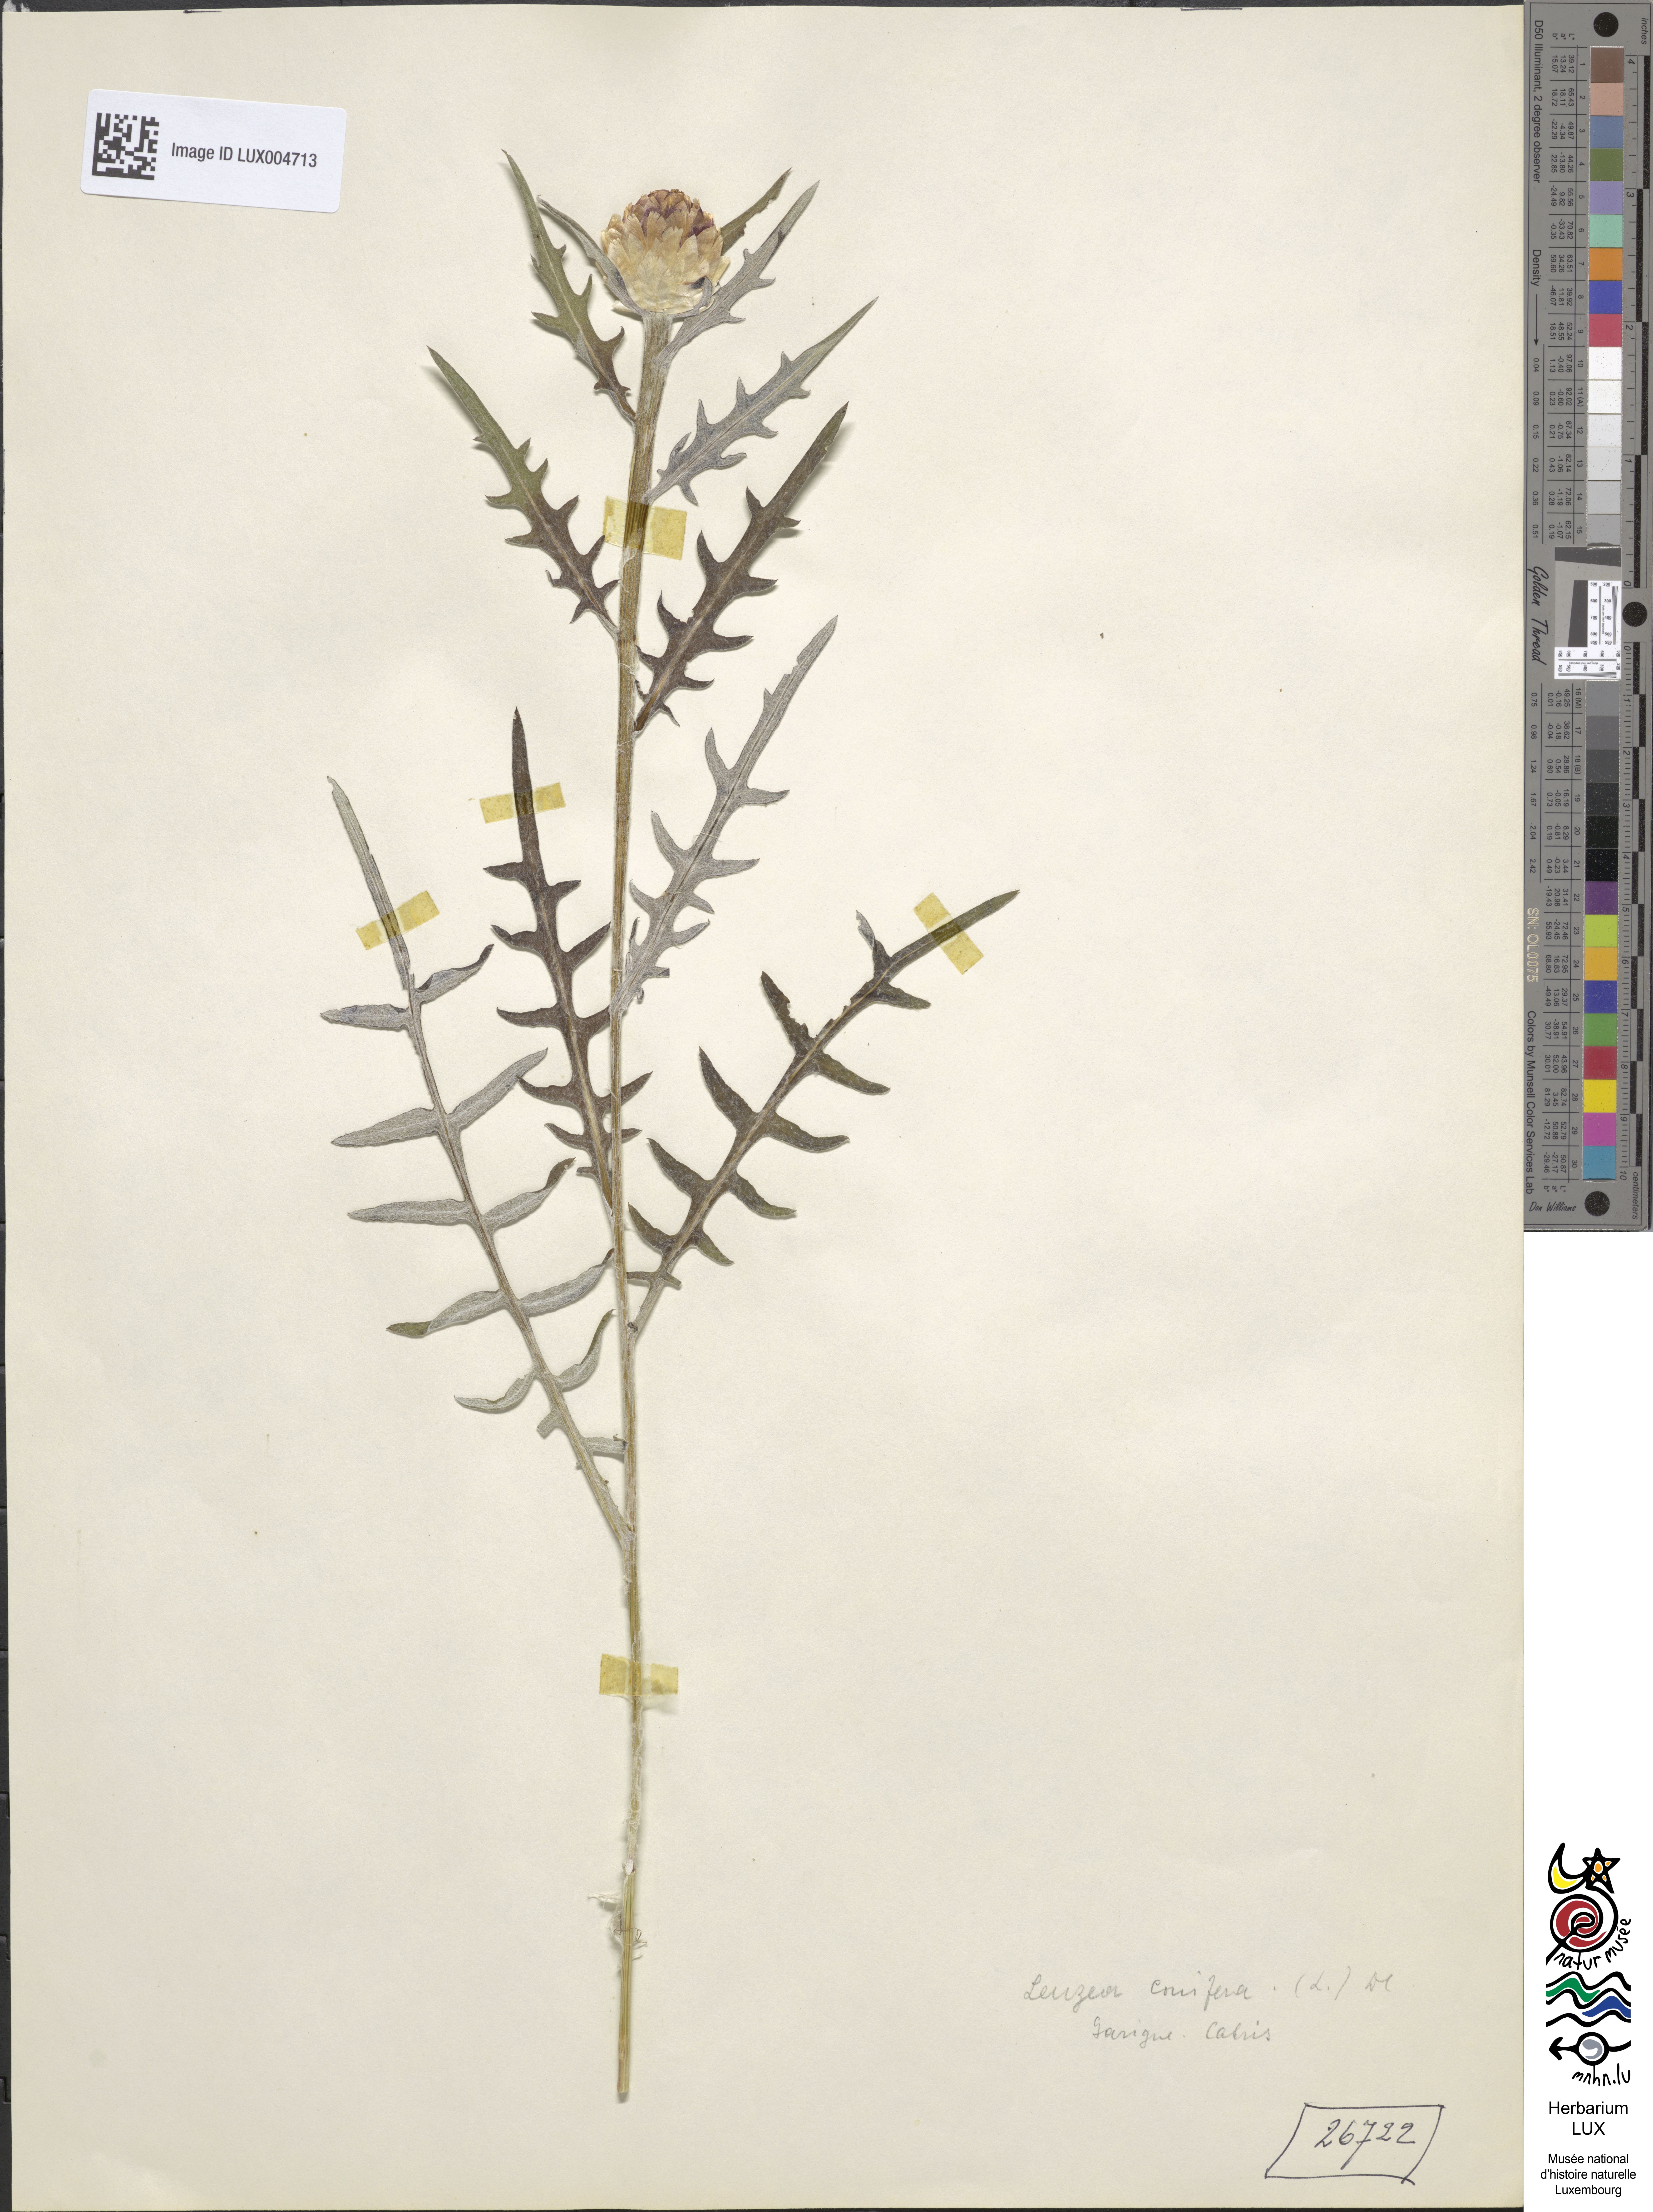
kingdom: Plantae
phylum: Tracheophyta
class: Magnoliopsida
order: Asterales
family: Asteraceae
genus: Leuzea
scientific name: Leuzea conifera
